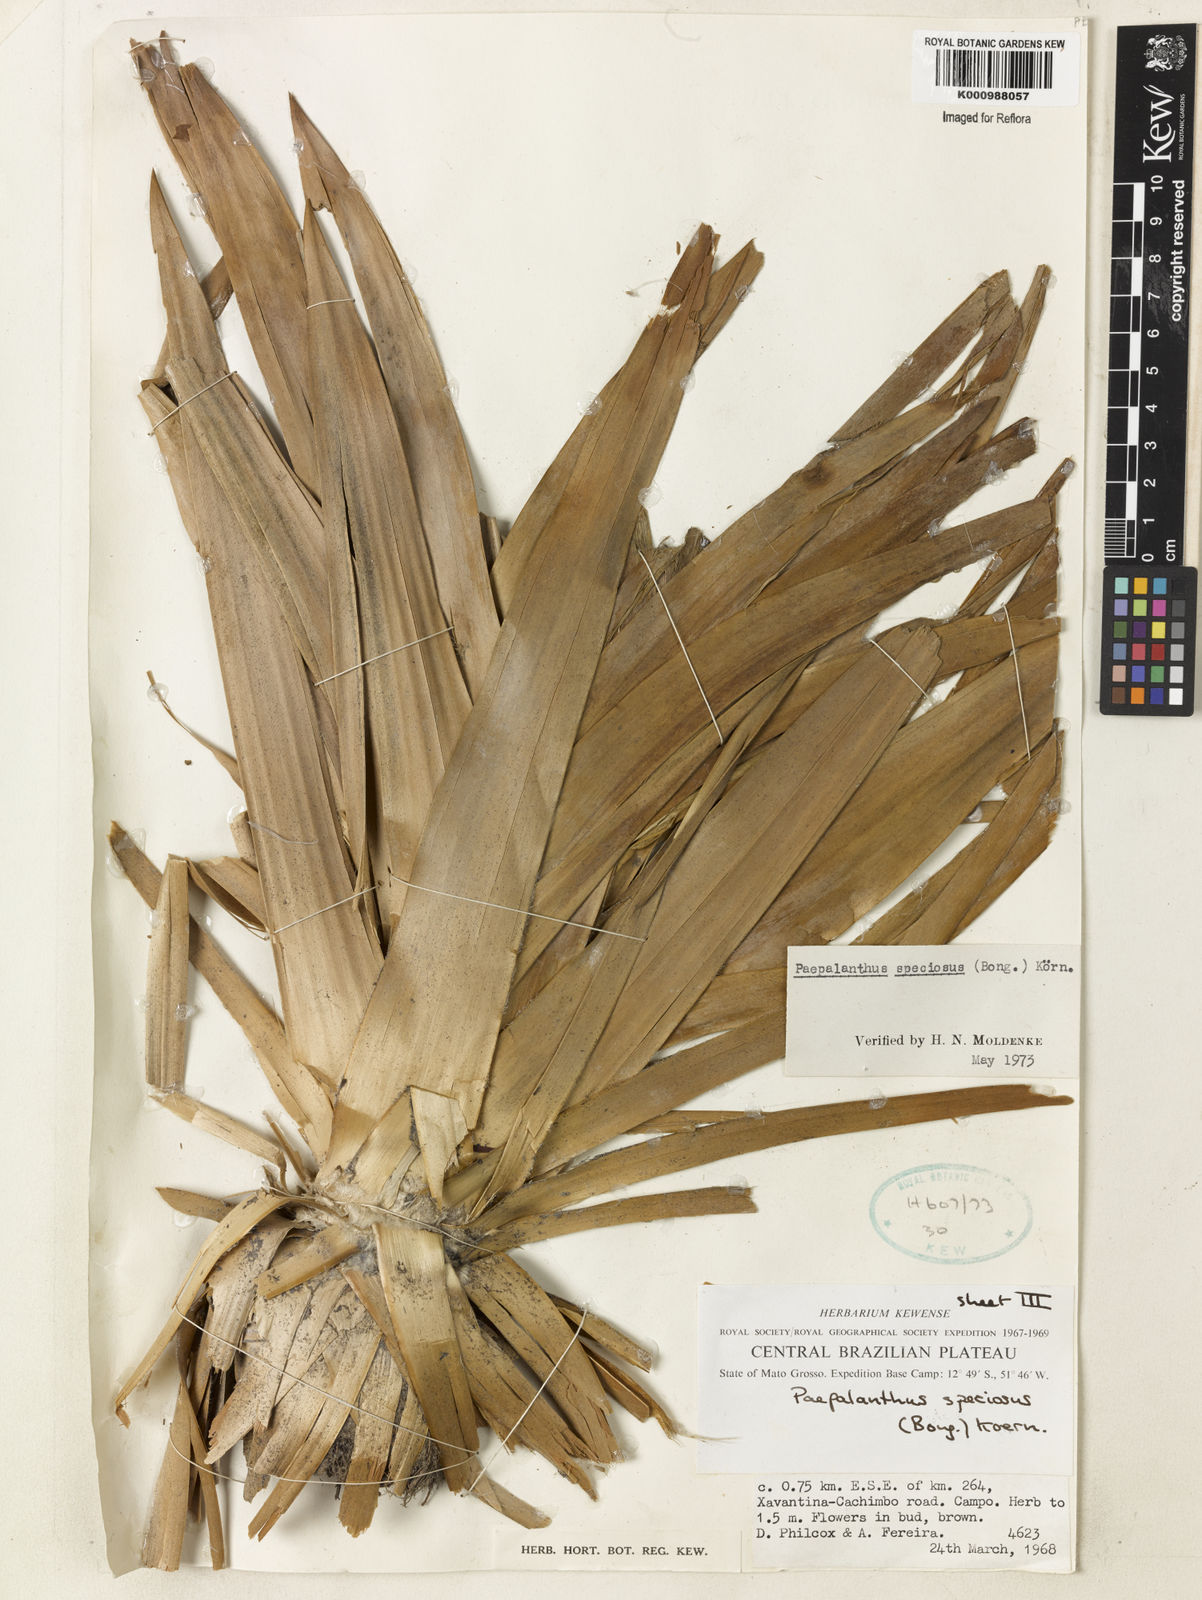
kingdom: Plantae
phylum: Tracheophyta
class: Liliopsida
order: Poales
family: Eriocaulaceae
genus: Paepalanthus
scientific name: Paepalanthus
